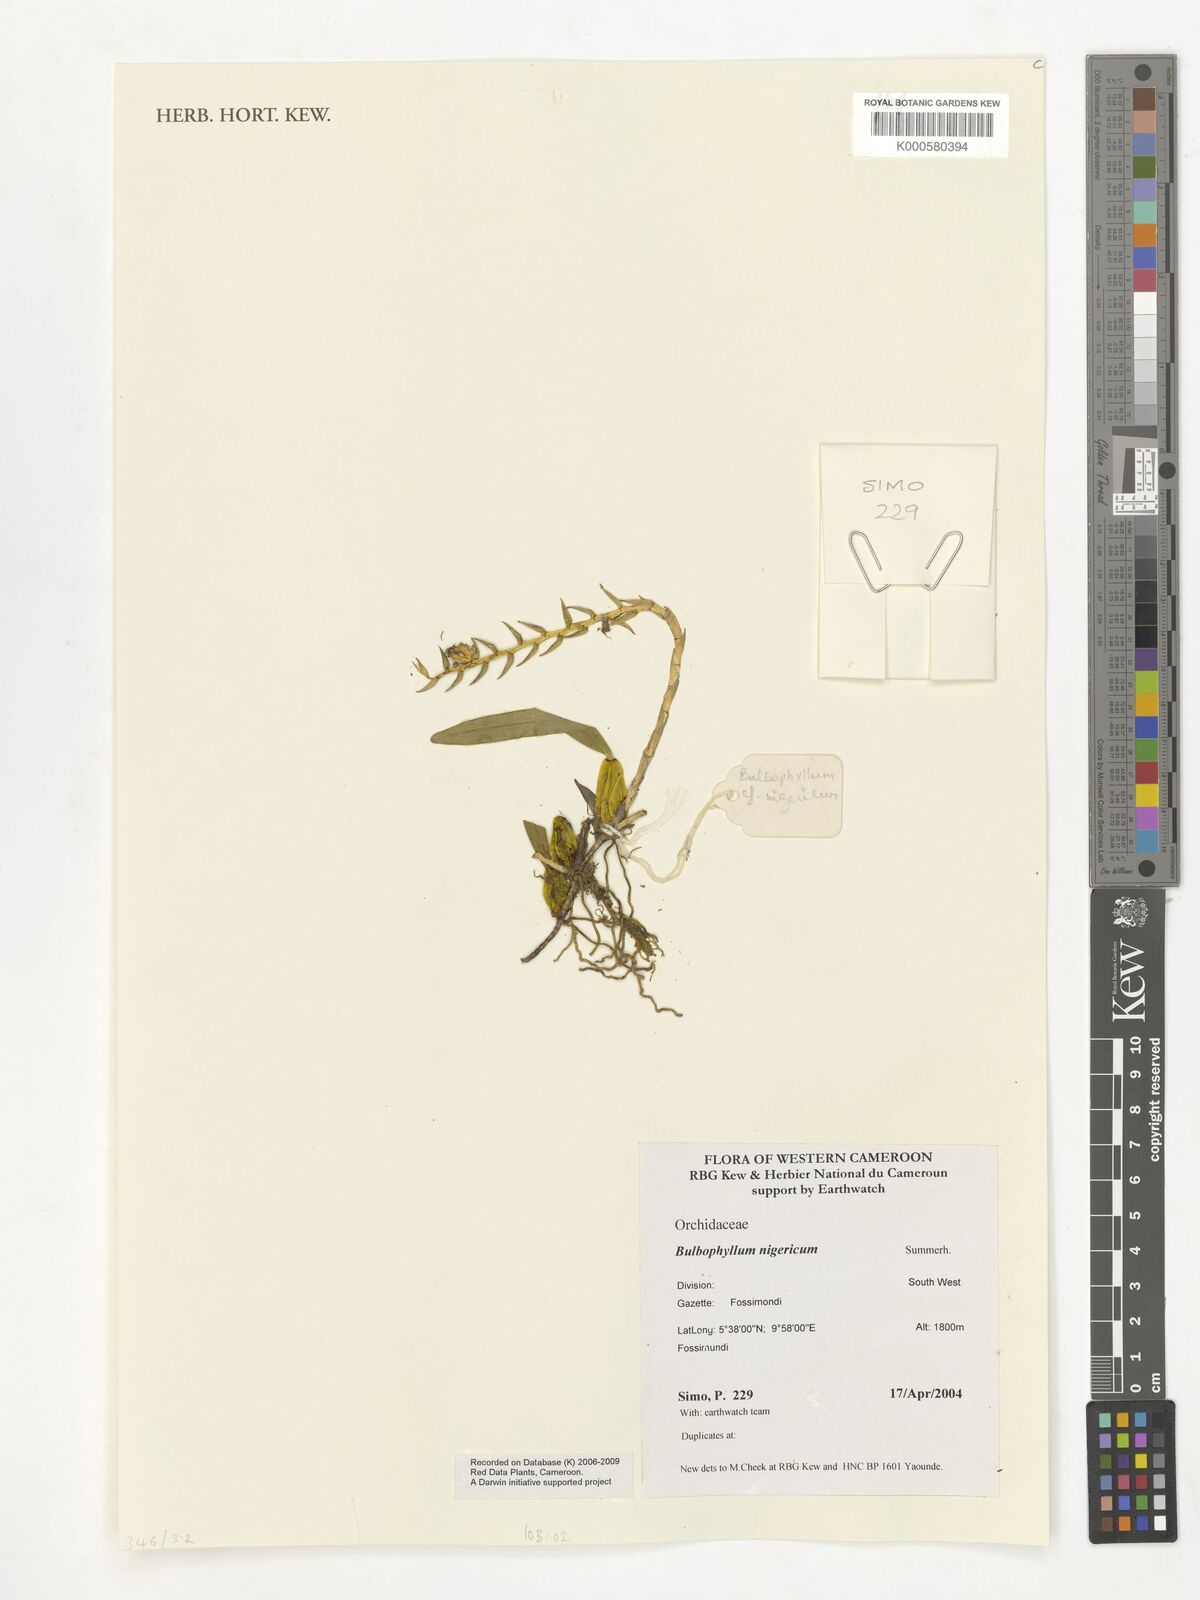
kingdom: Plantae
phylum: Tracheophyta
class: Liliopsida
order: Asparagales
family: Orchidaceae
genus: Bulbophyllum
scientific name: Bulbophyllum nigericum
